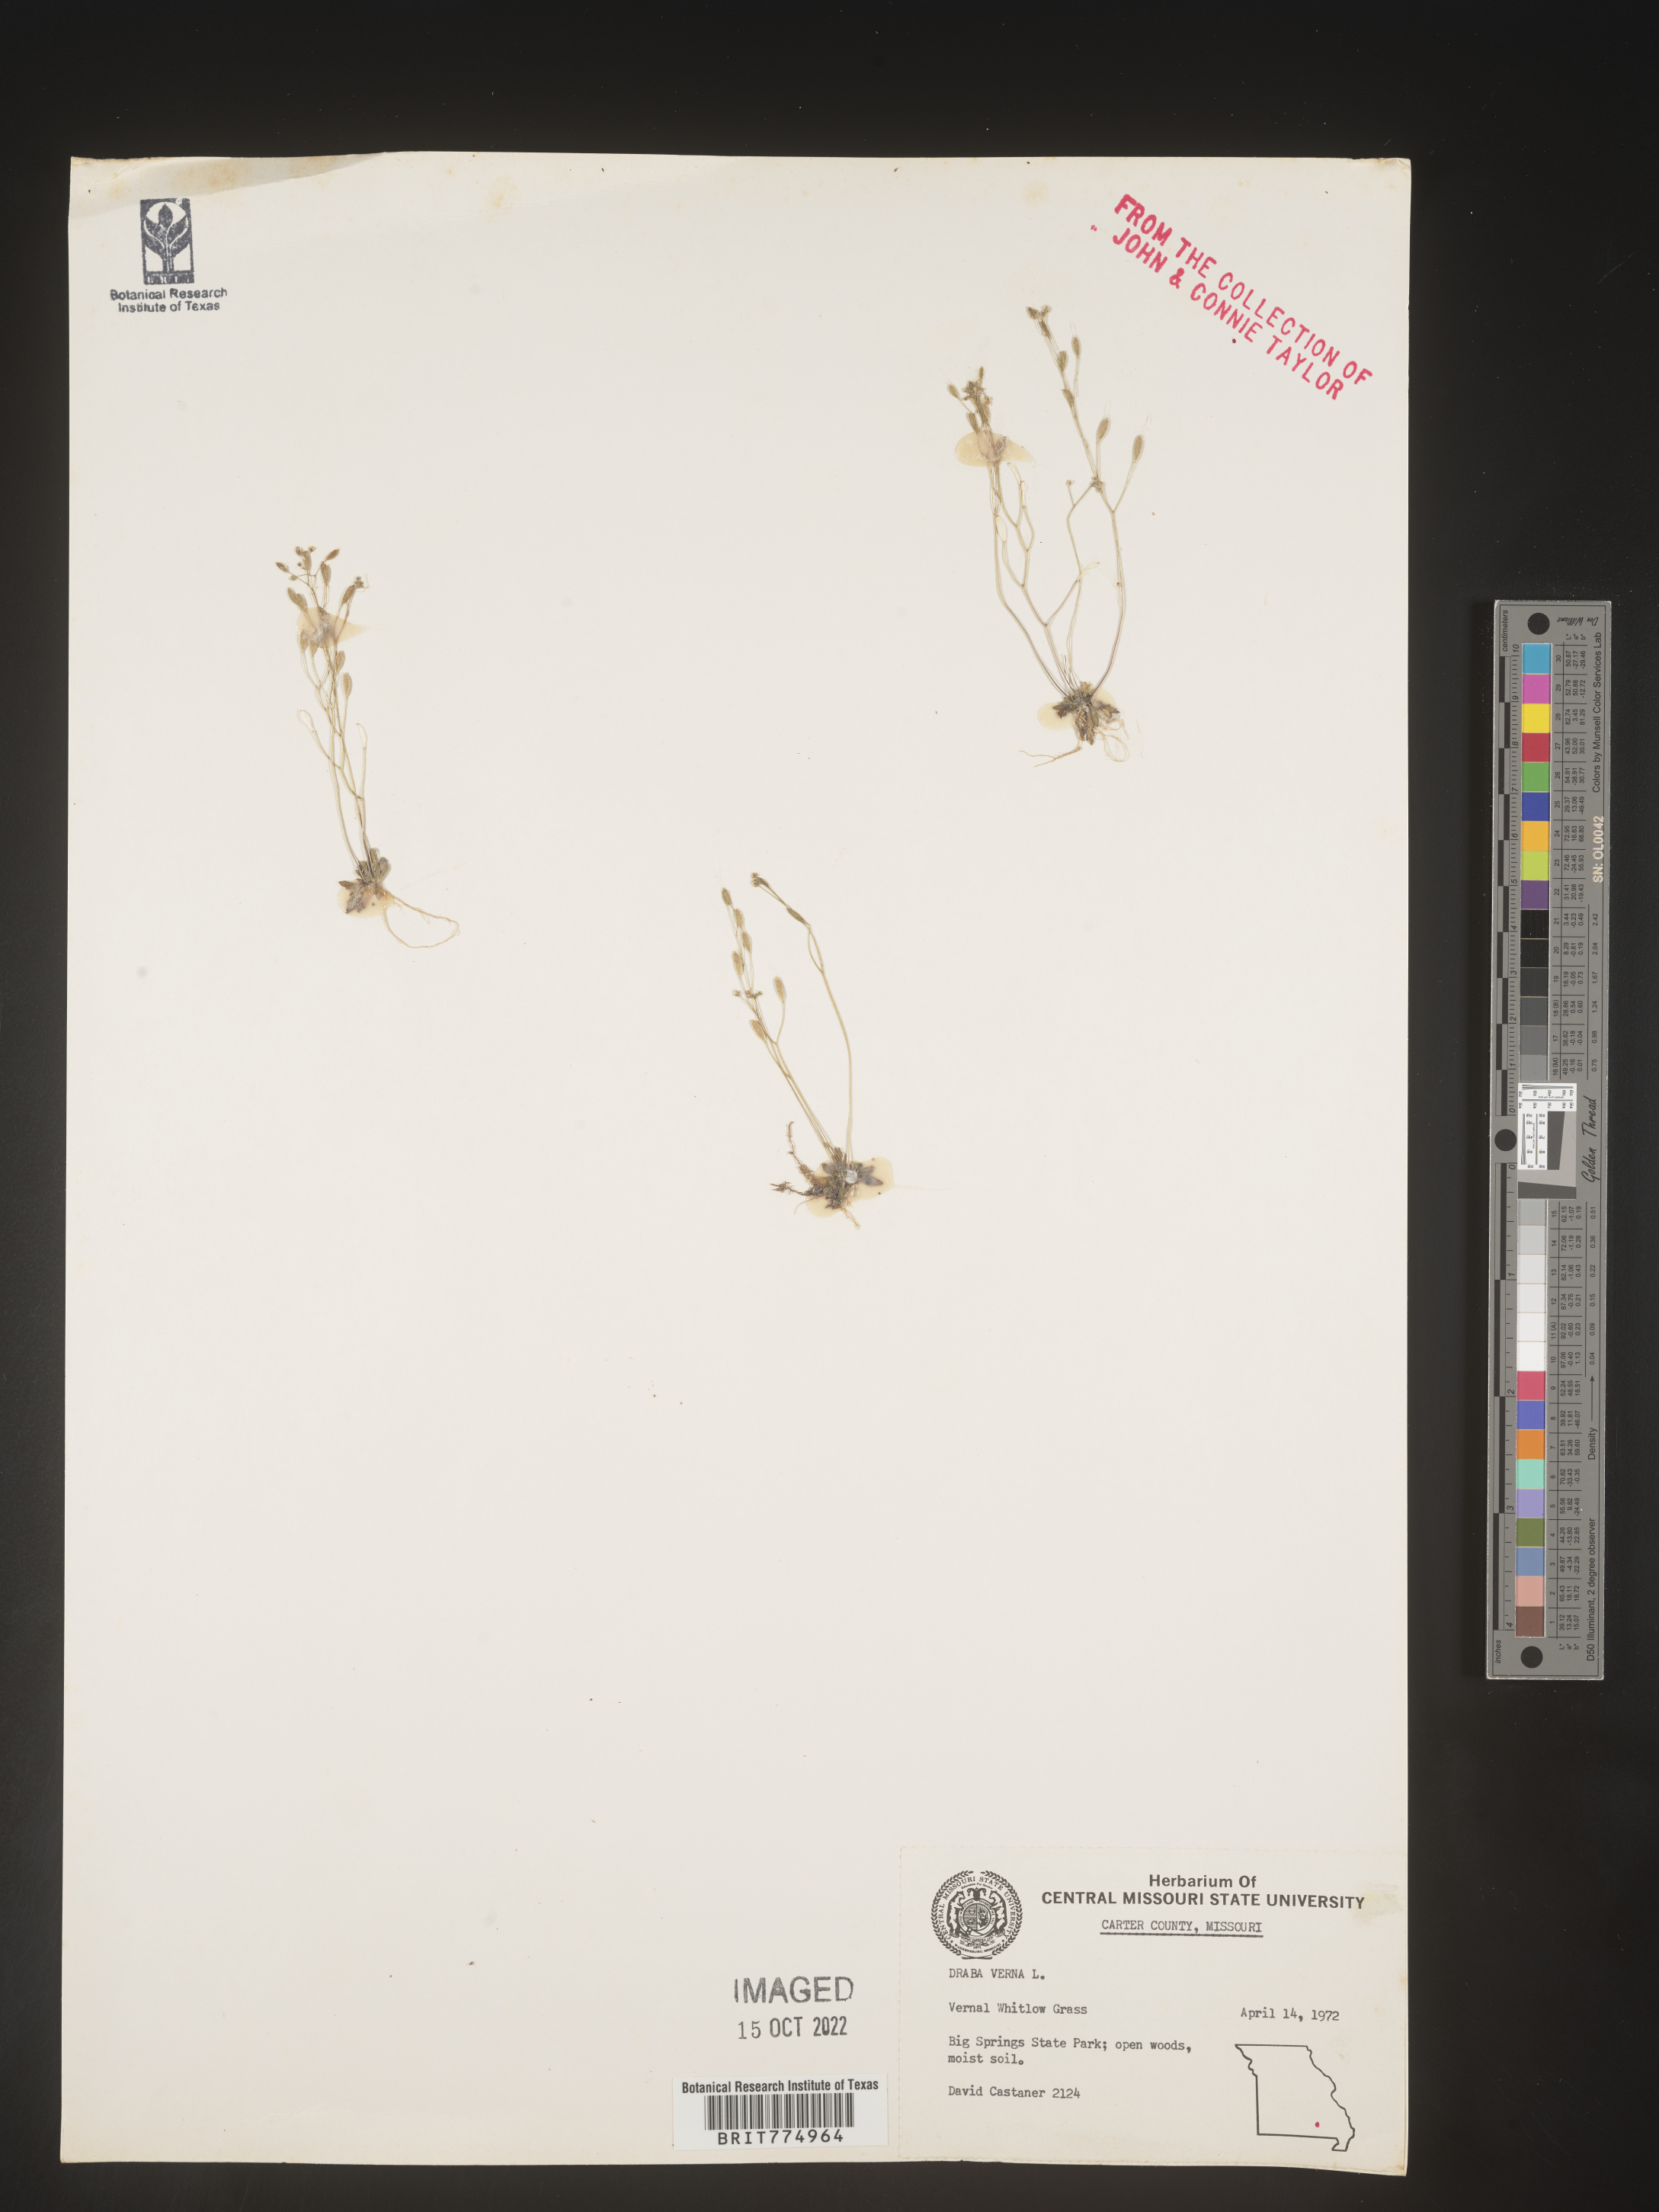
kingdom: Plantae
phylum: Tracheophyta
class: Magnoliopsida
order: Brassicales
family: Brassicaceae
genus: Draba
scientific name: Draba verna
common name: Spring draba
